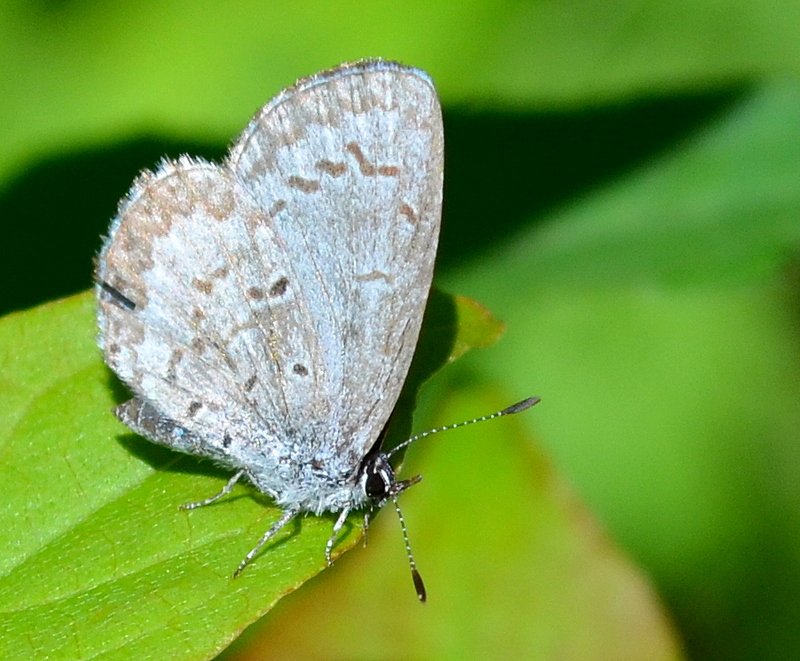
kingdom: Animalia
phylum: Arthropoda
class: Insecta
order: Lepidoptera
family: Lycaenidae
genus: Celastrina
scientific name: Celastrina lucia
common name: Northern Spring Azure
